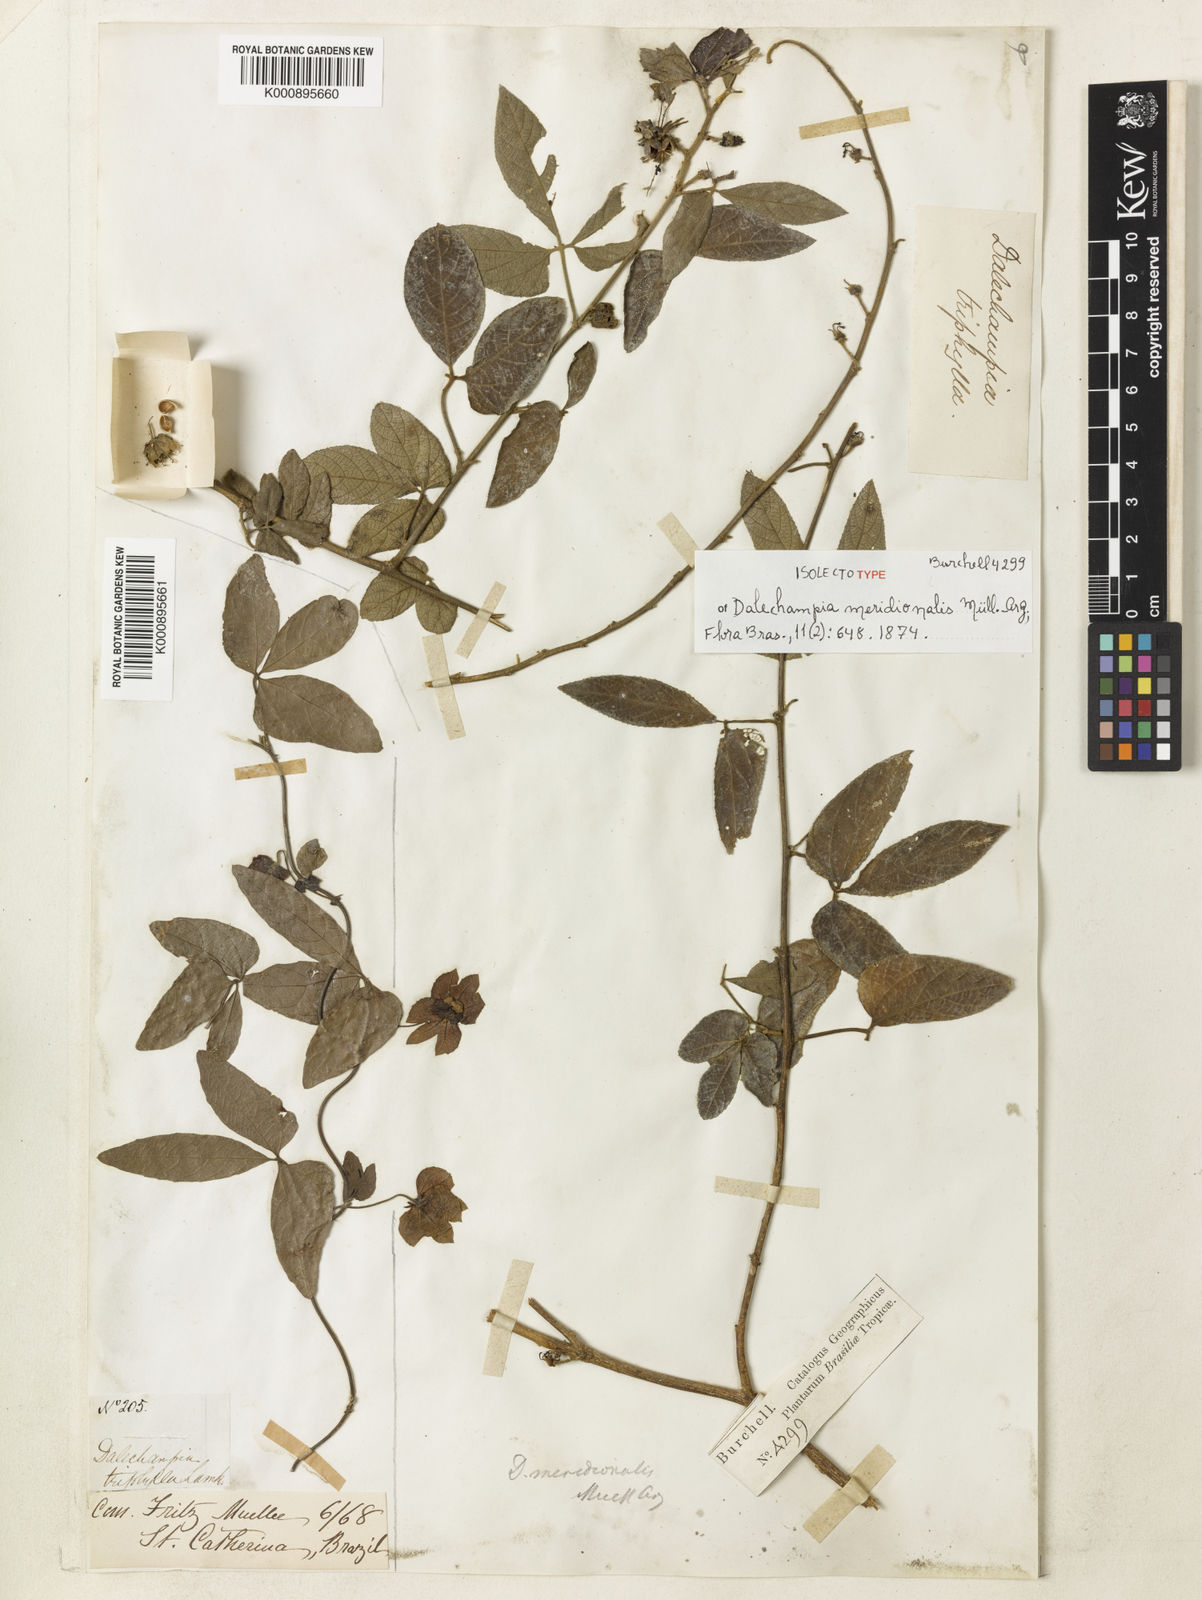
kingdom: Plantae
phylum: Tracheophyta
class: Magnoliopsida
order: Malpighiales
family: Euphorbiaceae
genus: Dalechampia
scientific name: Dalechampia
